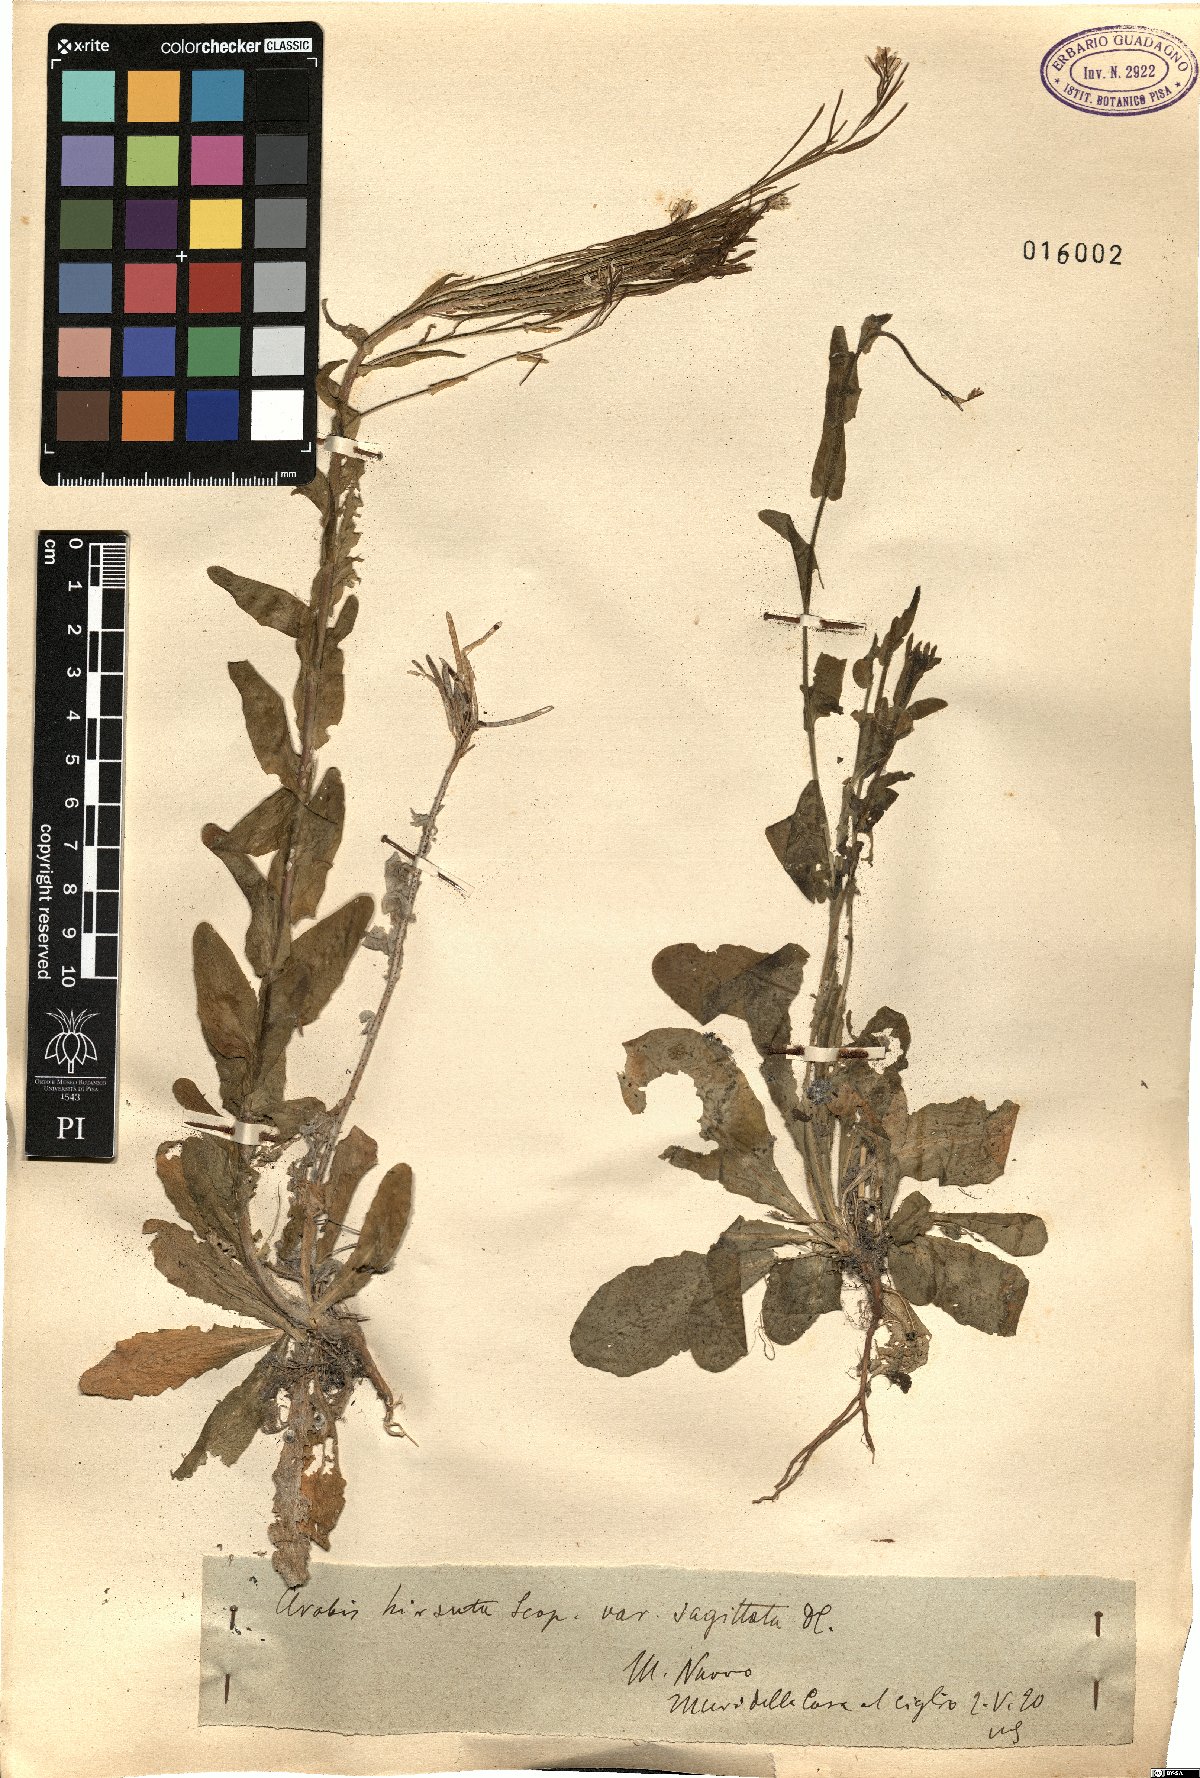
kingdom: Plantae
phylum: Tracheophyta
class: Magnoliopsida
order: Brassicales
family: Brassicaceae
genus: Arabis
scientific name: Arabis sagittata
